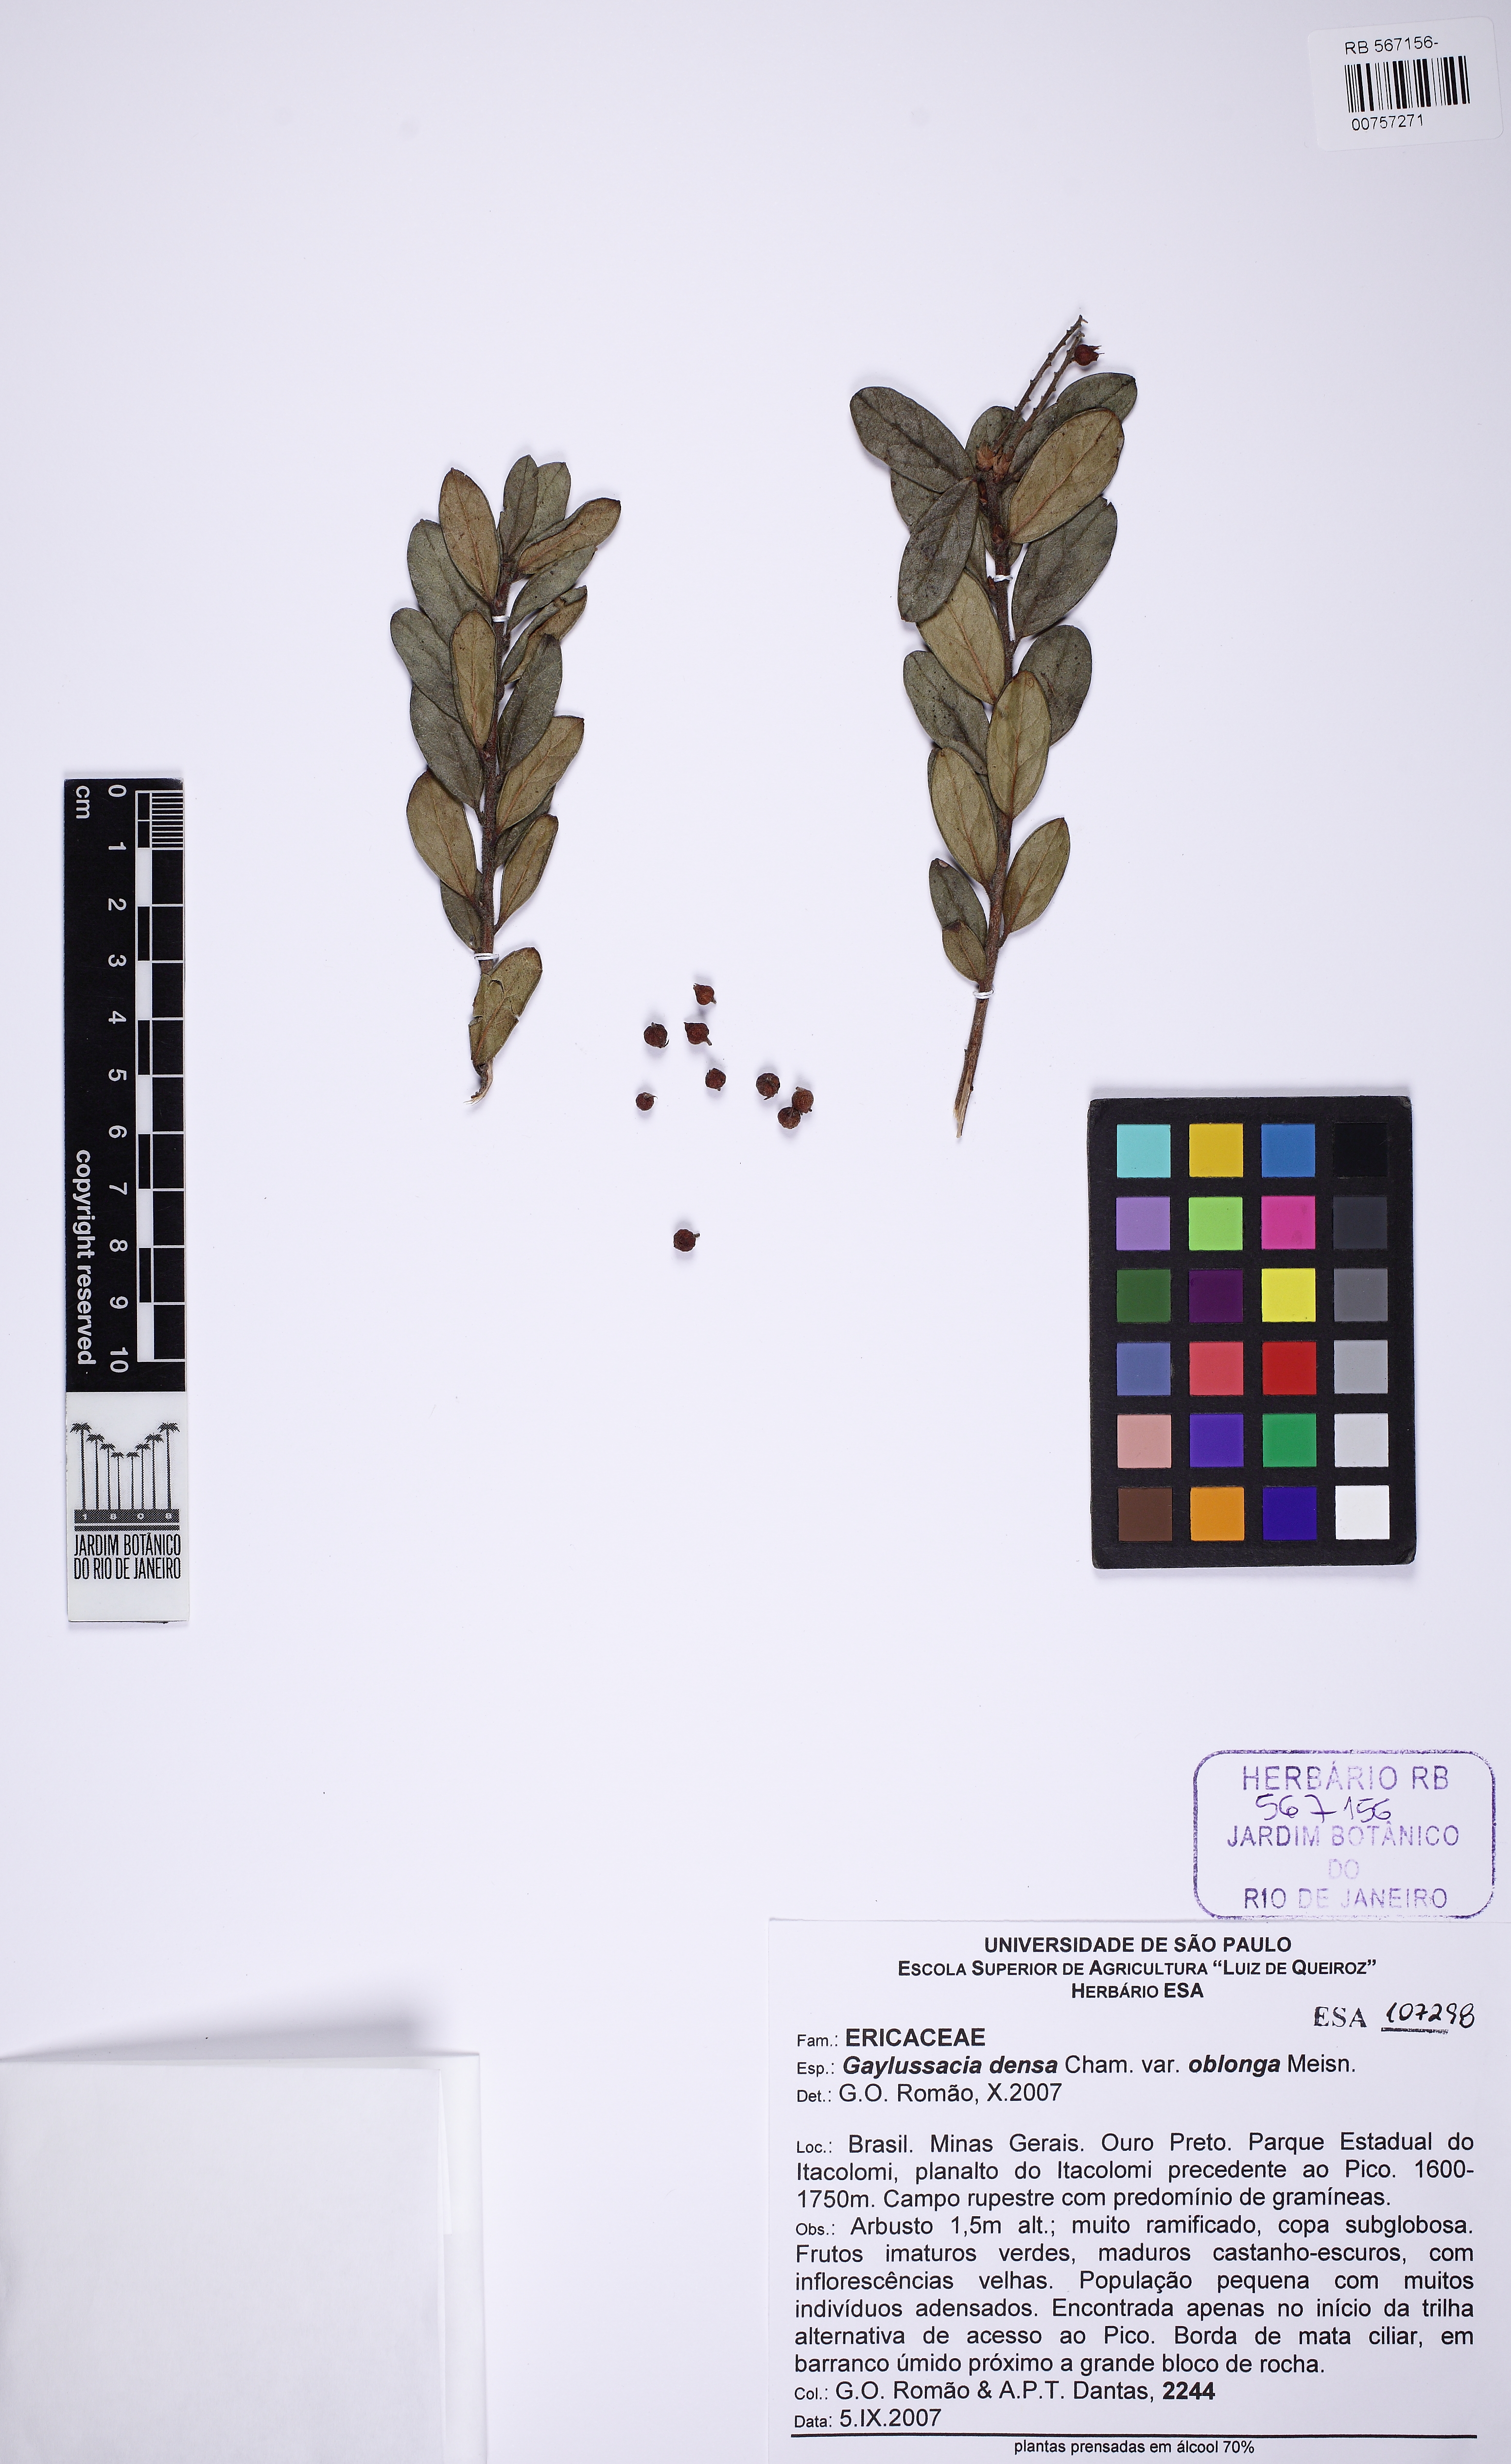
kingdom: Plantae
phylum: Tracheophyta
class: Magnoliopsida
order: Ericales
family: Ericaceae
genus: Gaylussacia
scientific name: Gaylussacia densa
